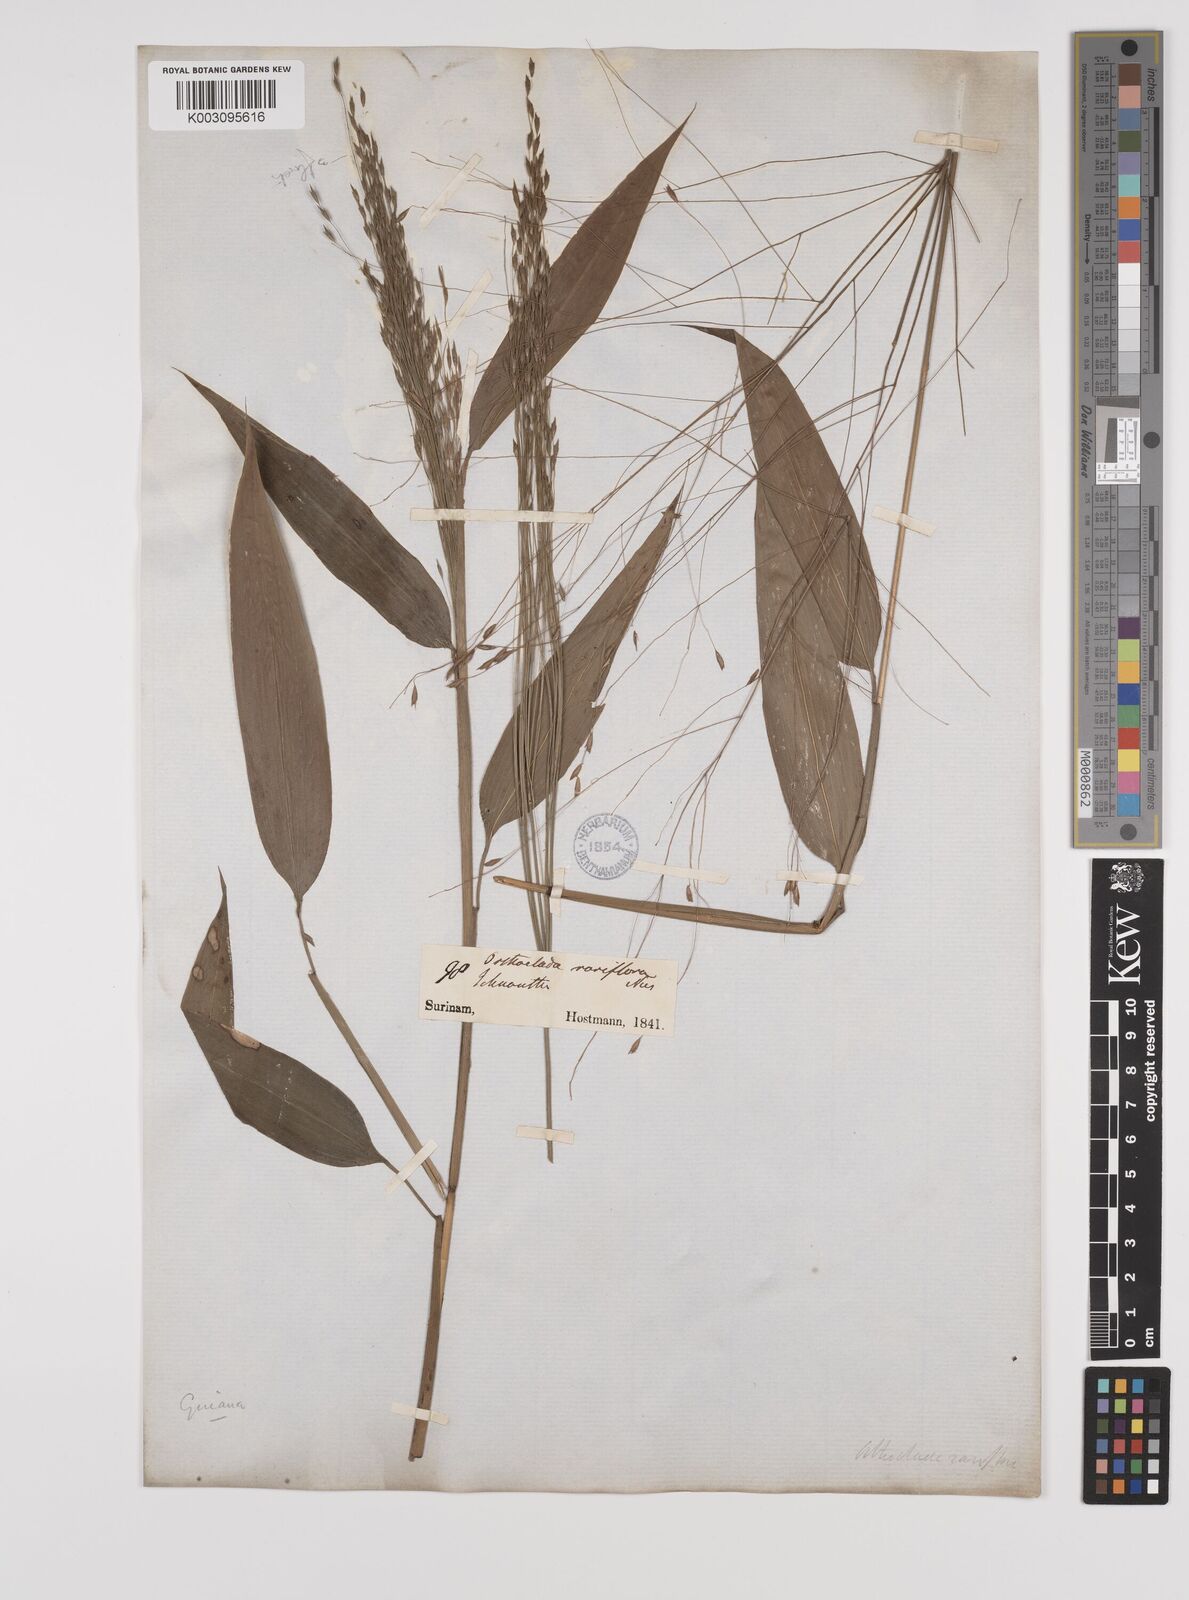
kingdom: Plantae
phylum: Tracheophyta
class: Liliopsida
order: Poales
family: Poaceae
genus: Orthoclada
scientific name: Orthoclada laxa
